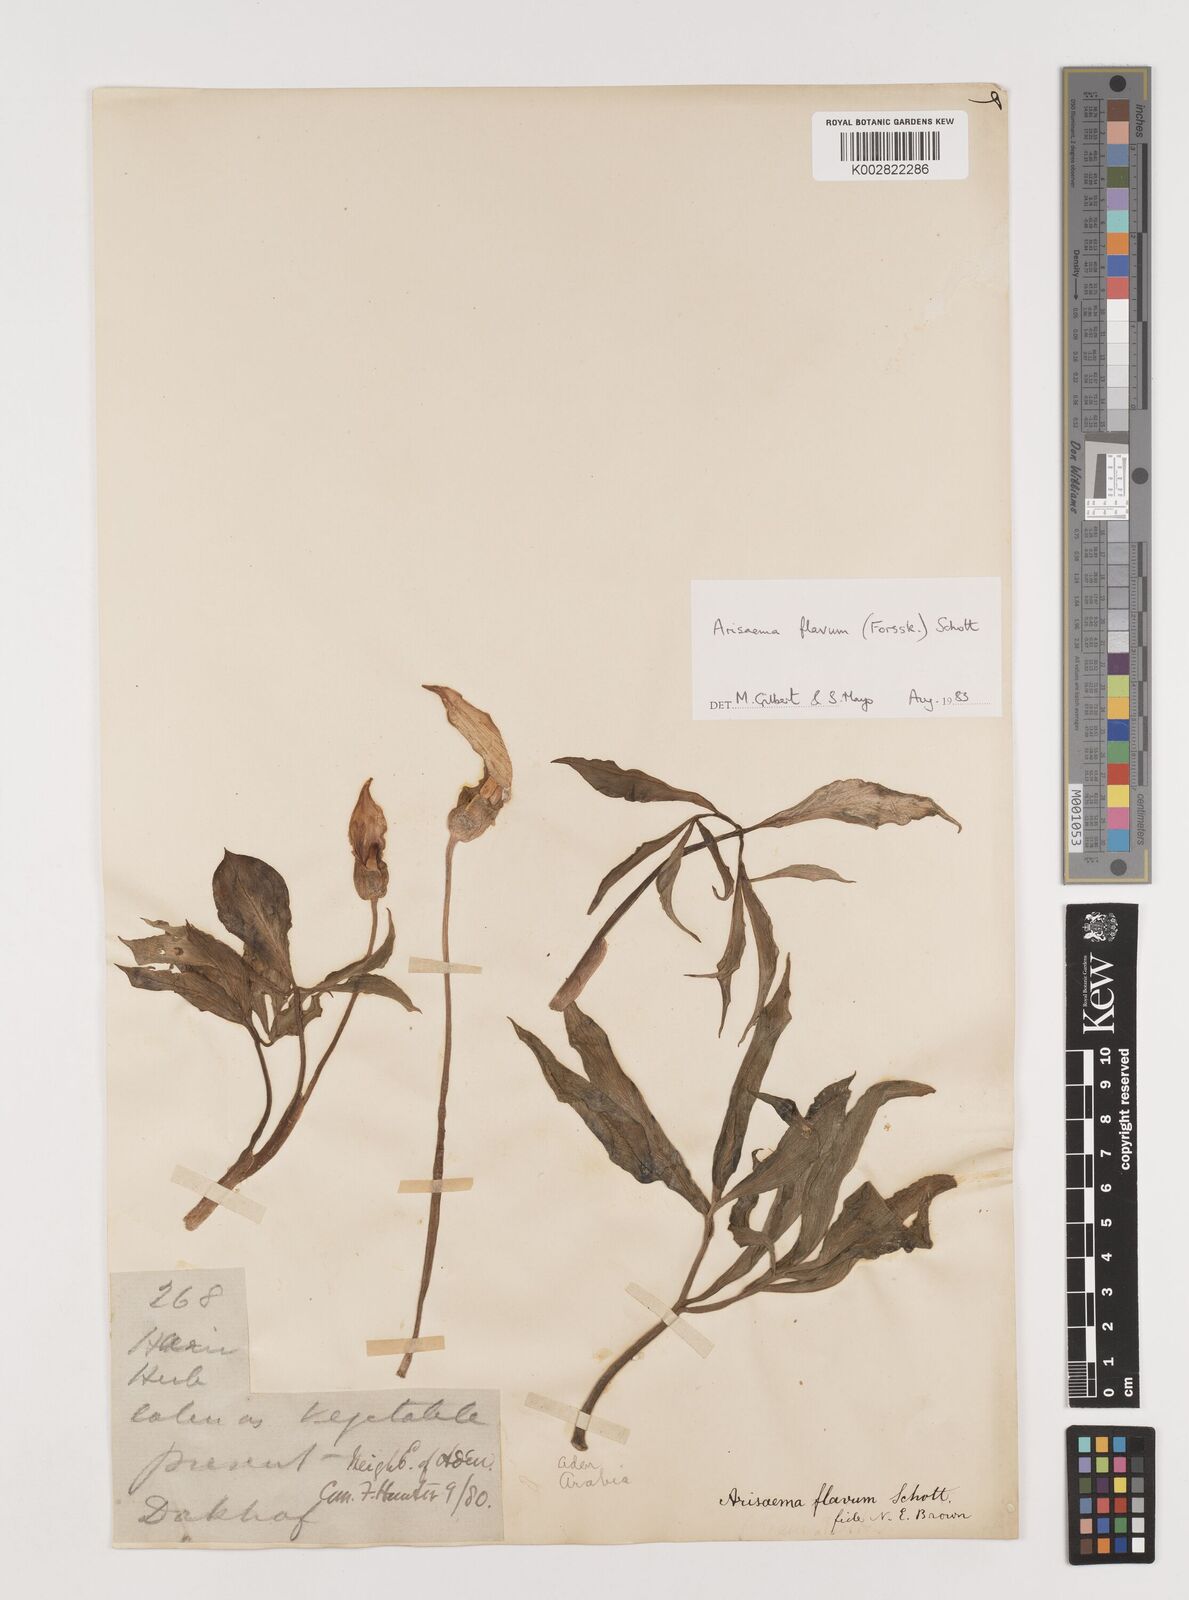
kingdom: Plantae
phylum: Tracheophyta
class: Liliopsida
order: Alismatales
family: Araceae
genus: Arisaema
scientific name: Arisaema flavum
